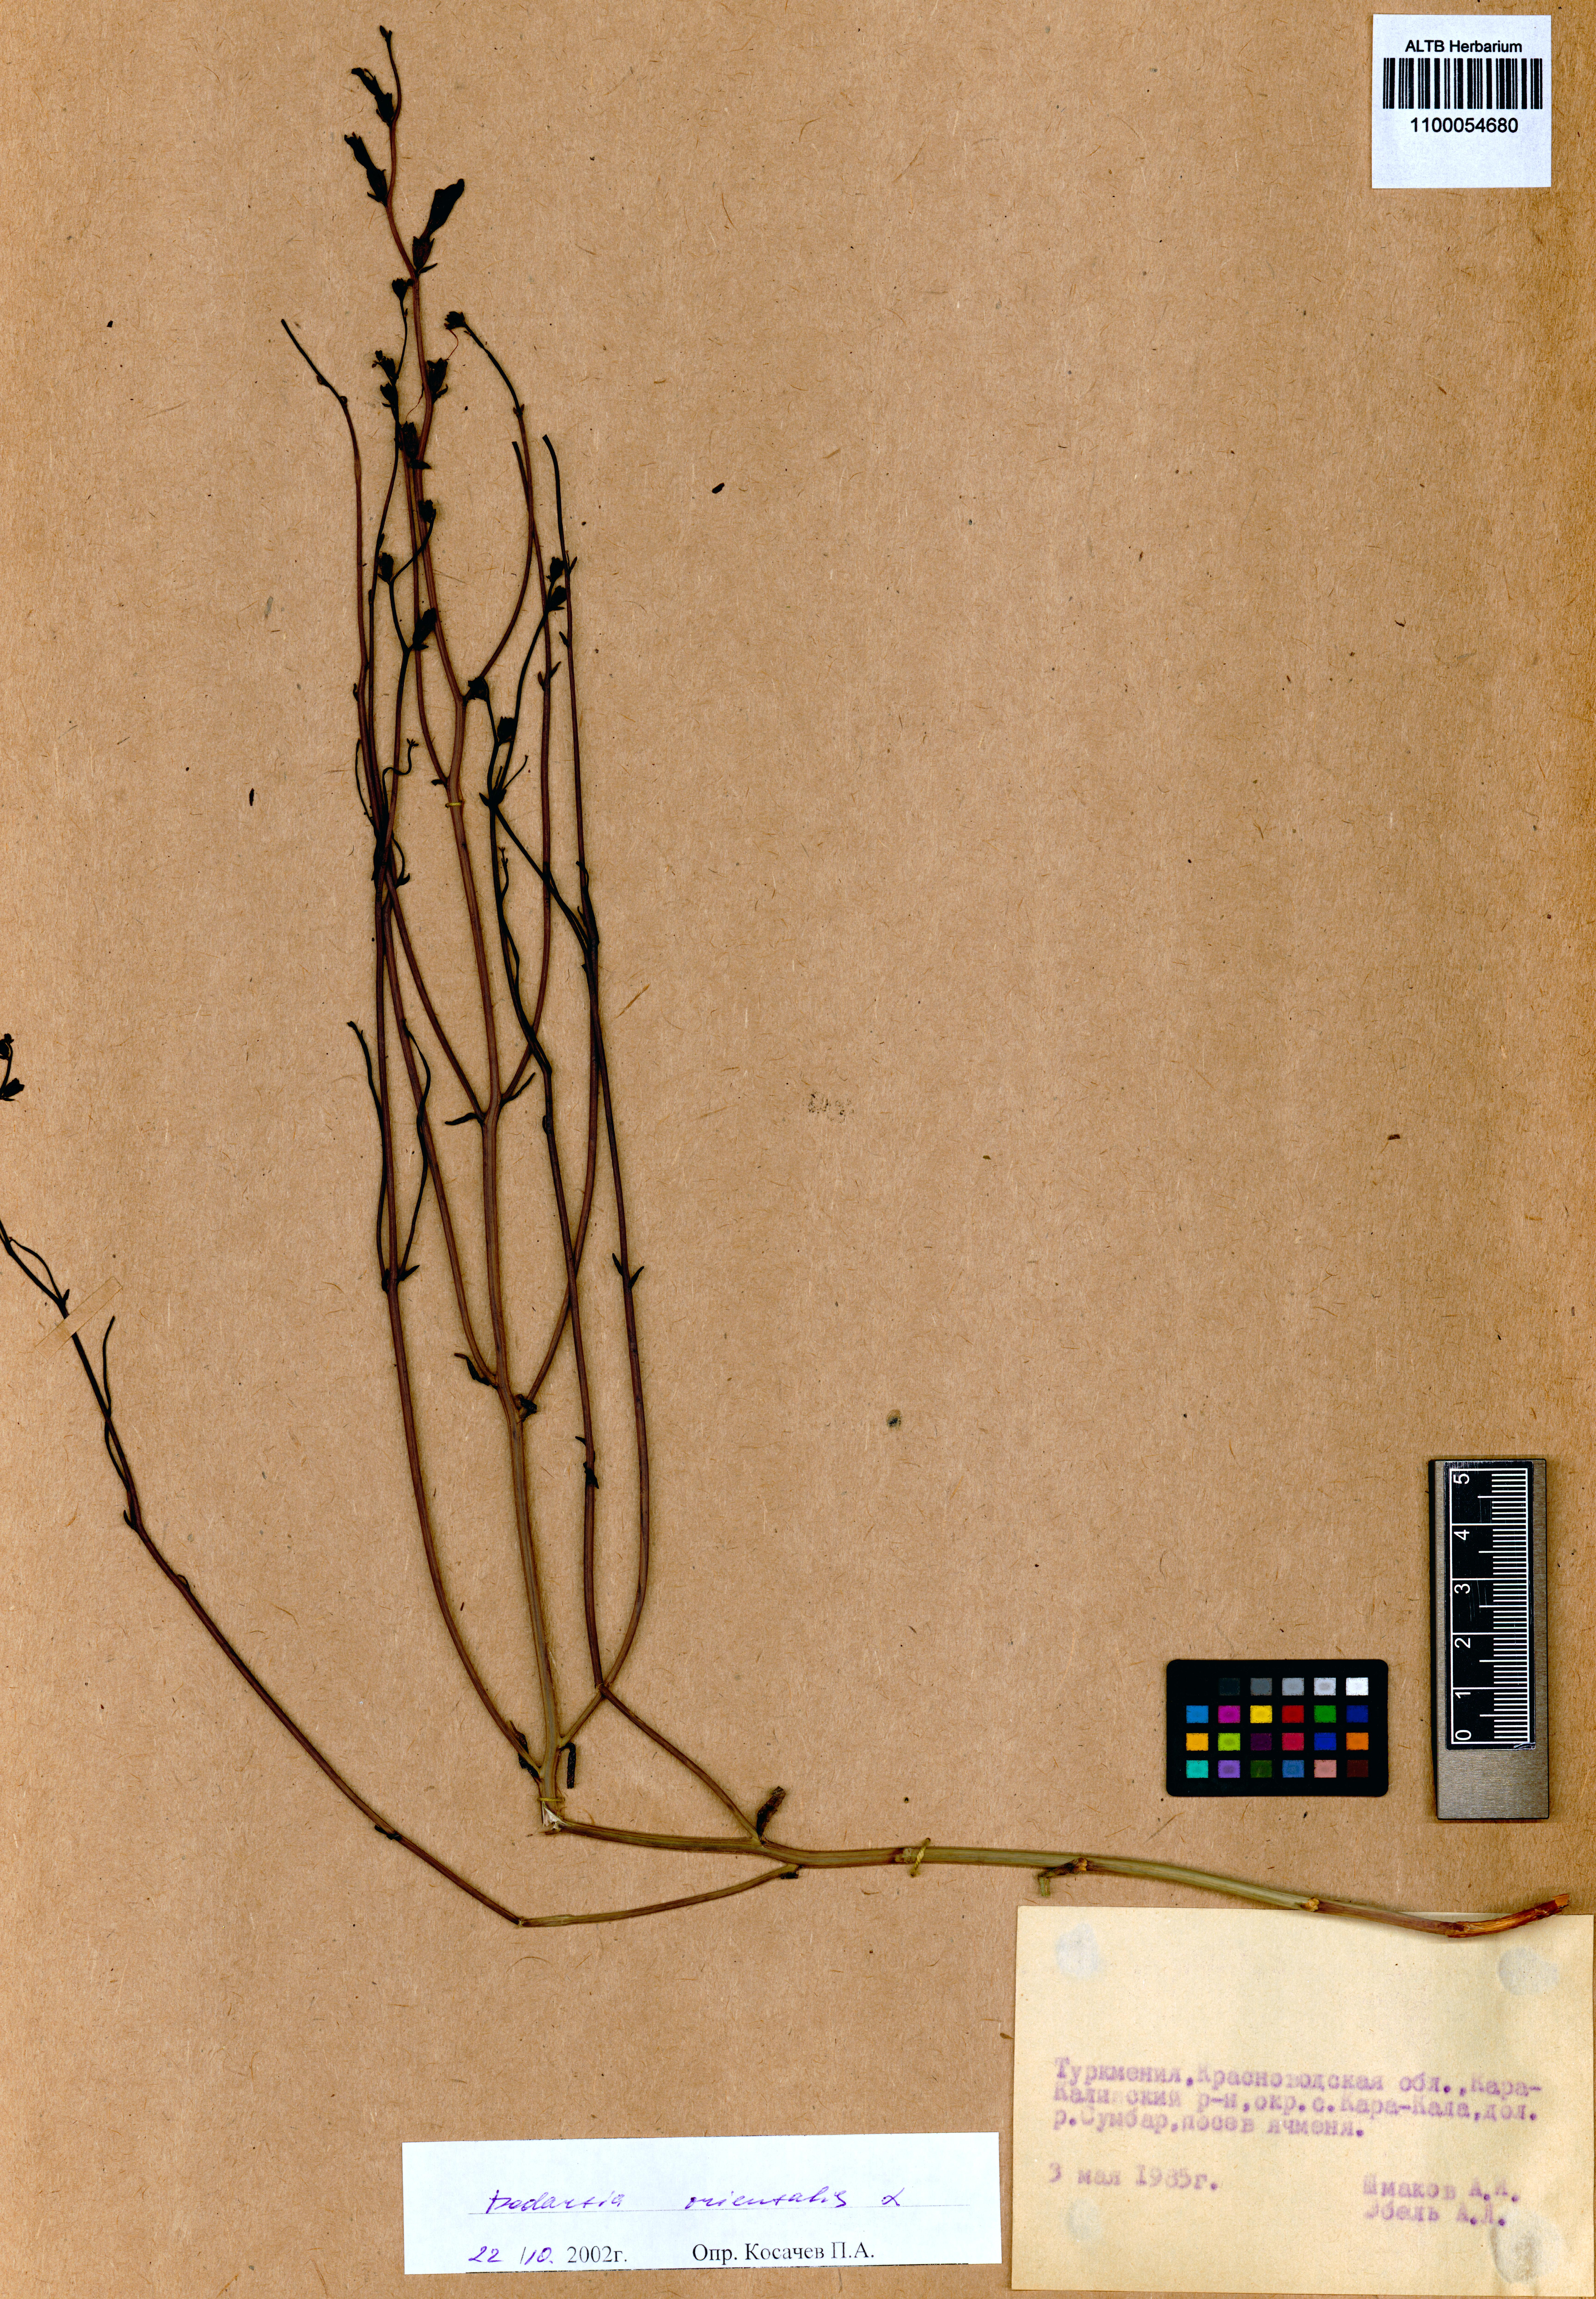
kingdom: Plantae
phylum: Tracheophyta
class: Magnoliopsida
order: Lamiales
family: Mazaceae
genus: Dodartia
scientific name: Dodartia orientalis
